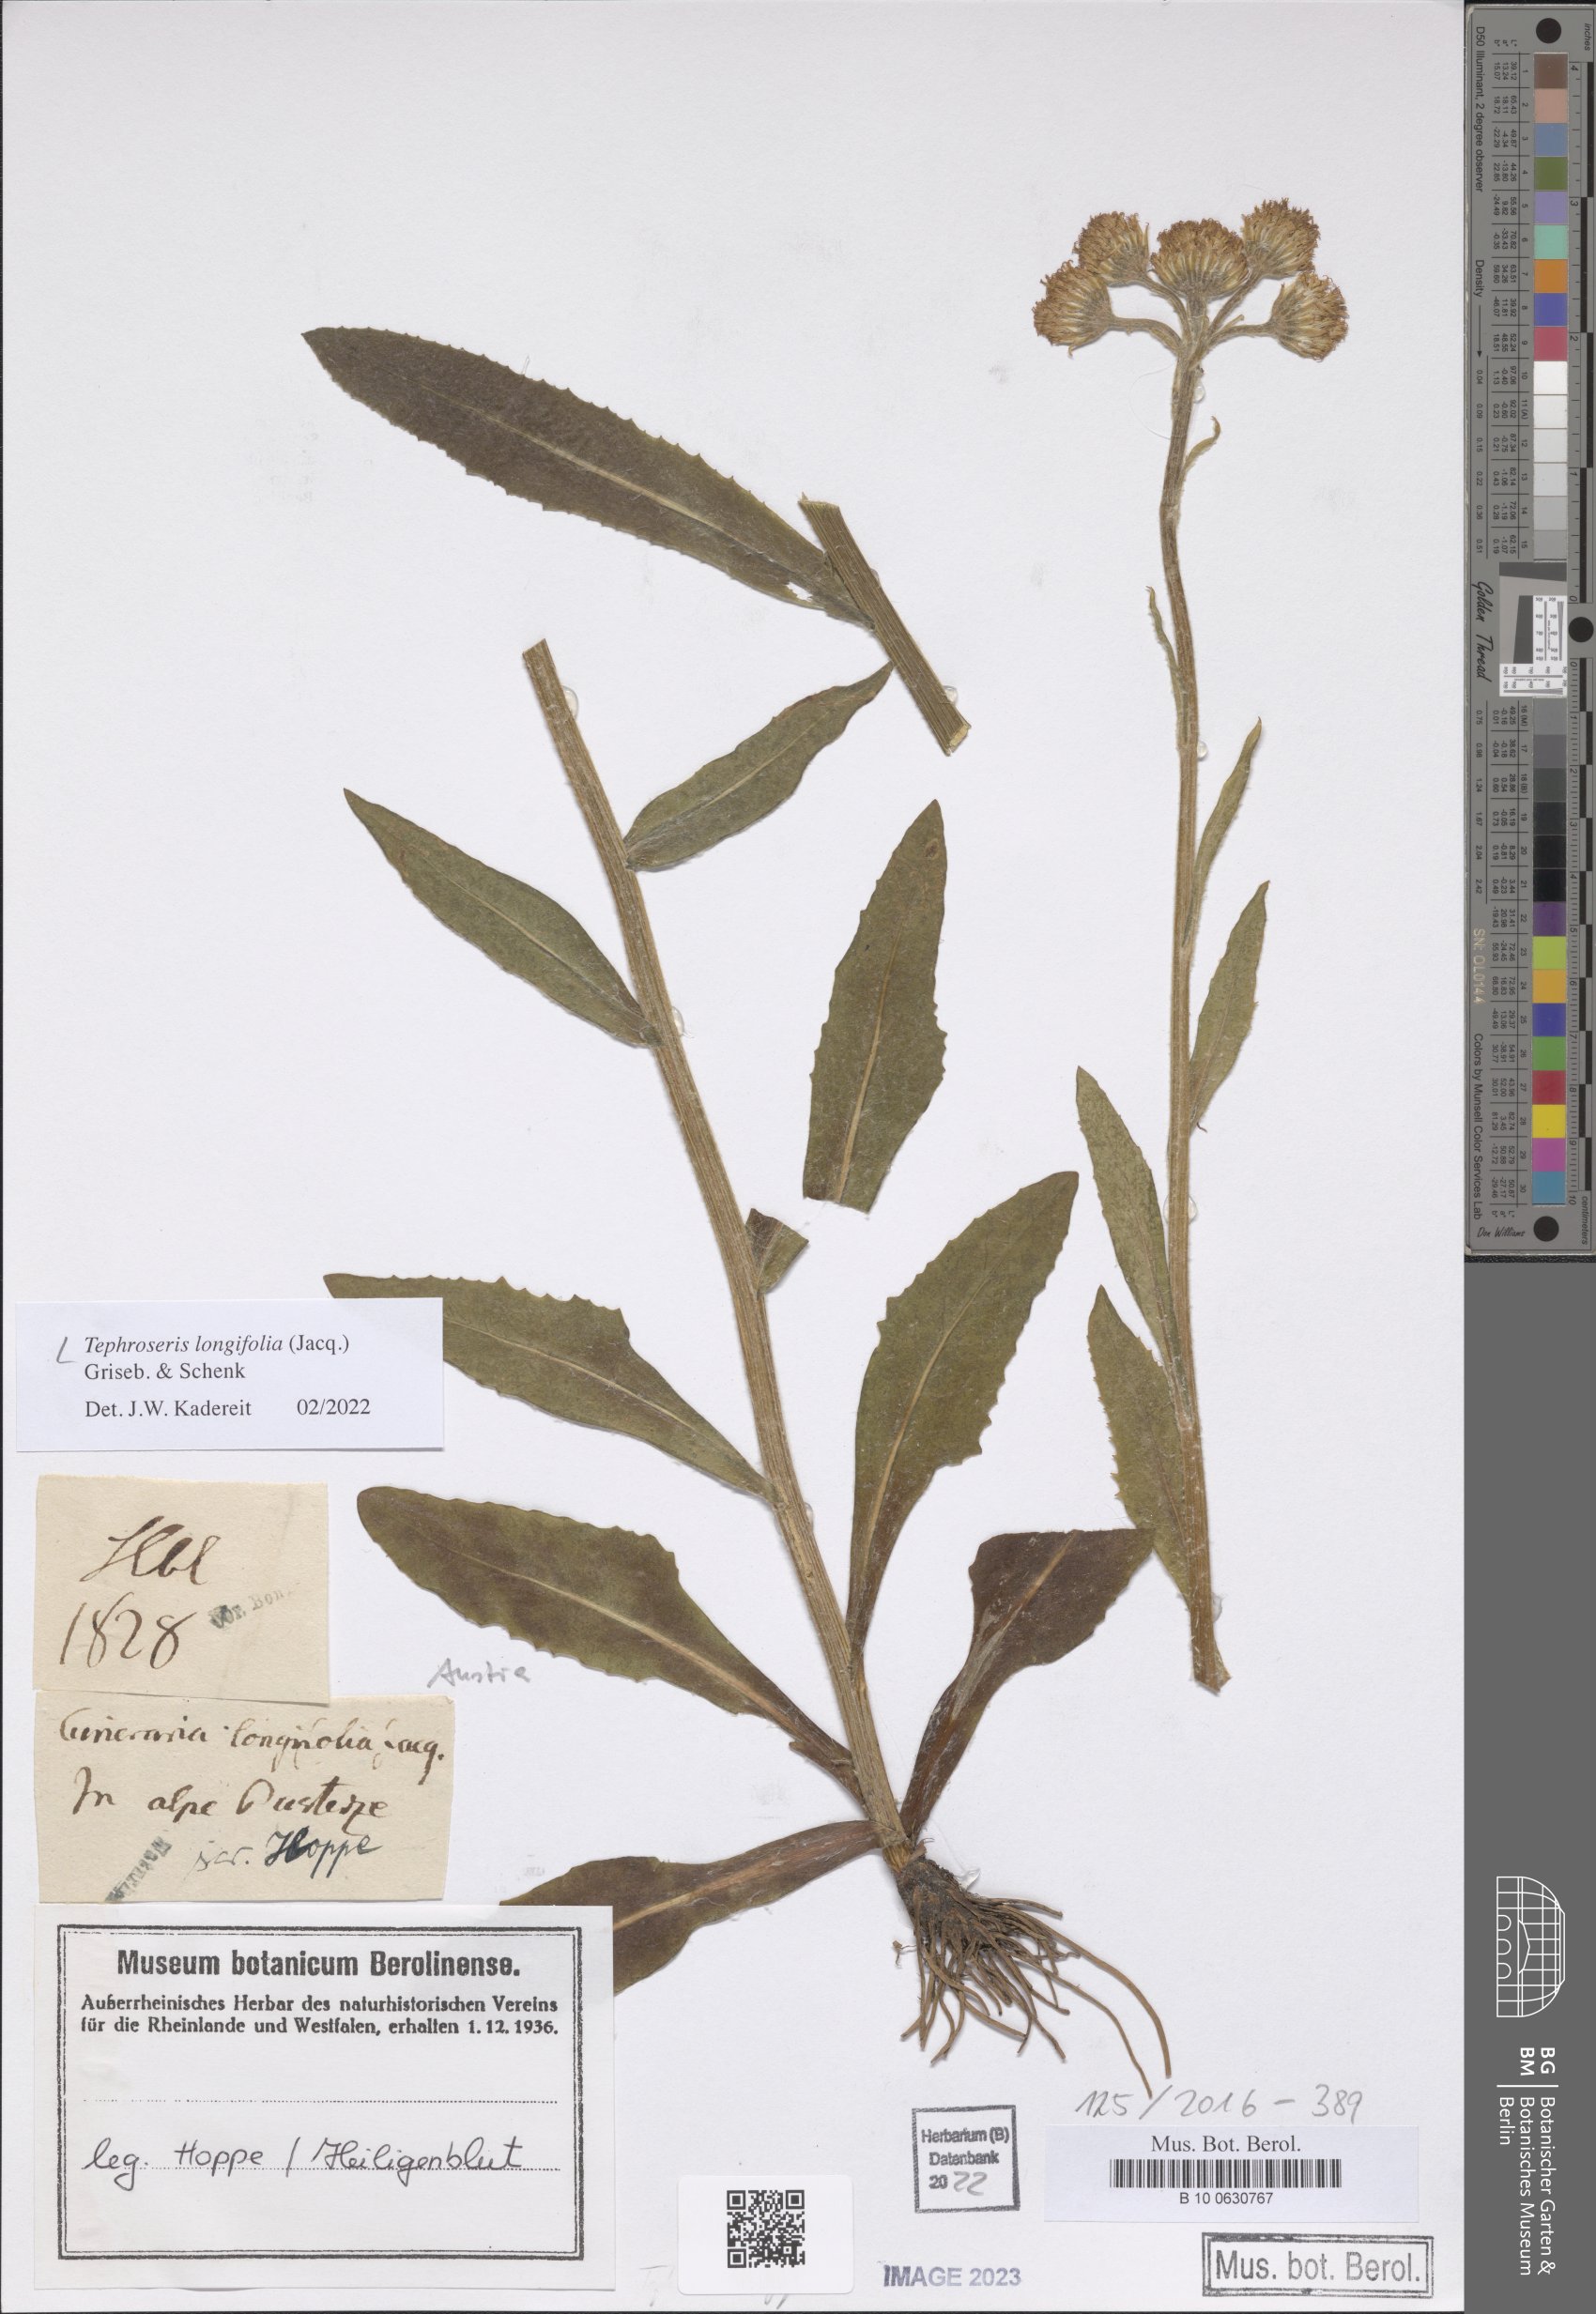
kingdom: Plantae
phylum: Tracheophyta
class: Magnoliopsida
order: Asterales
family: Asteraceae
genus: Tephroseris
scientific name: Tephroseris longifolia
